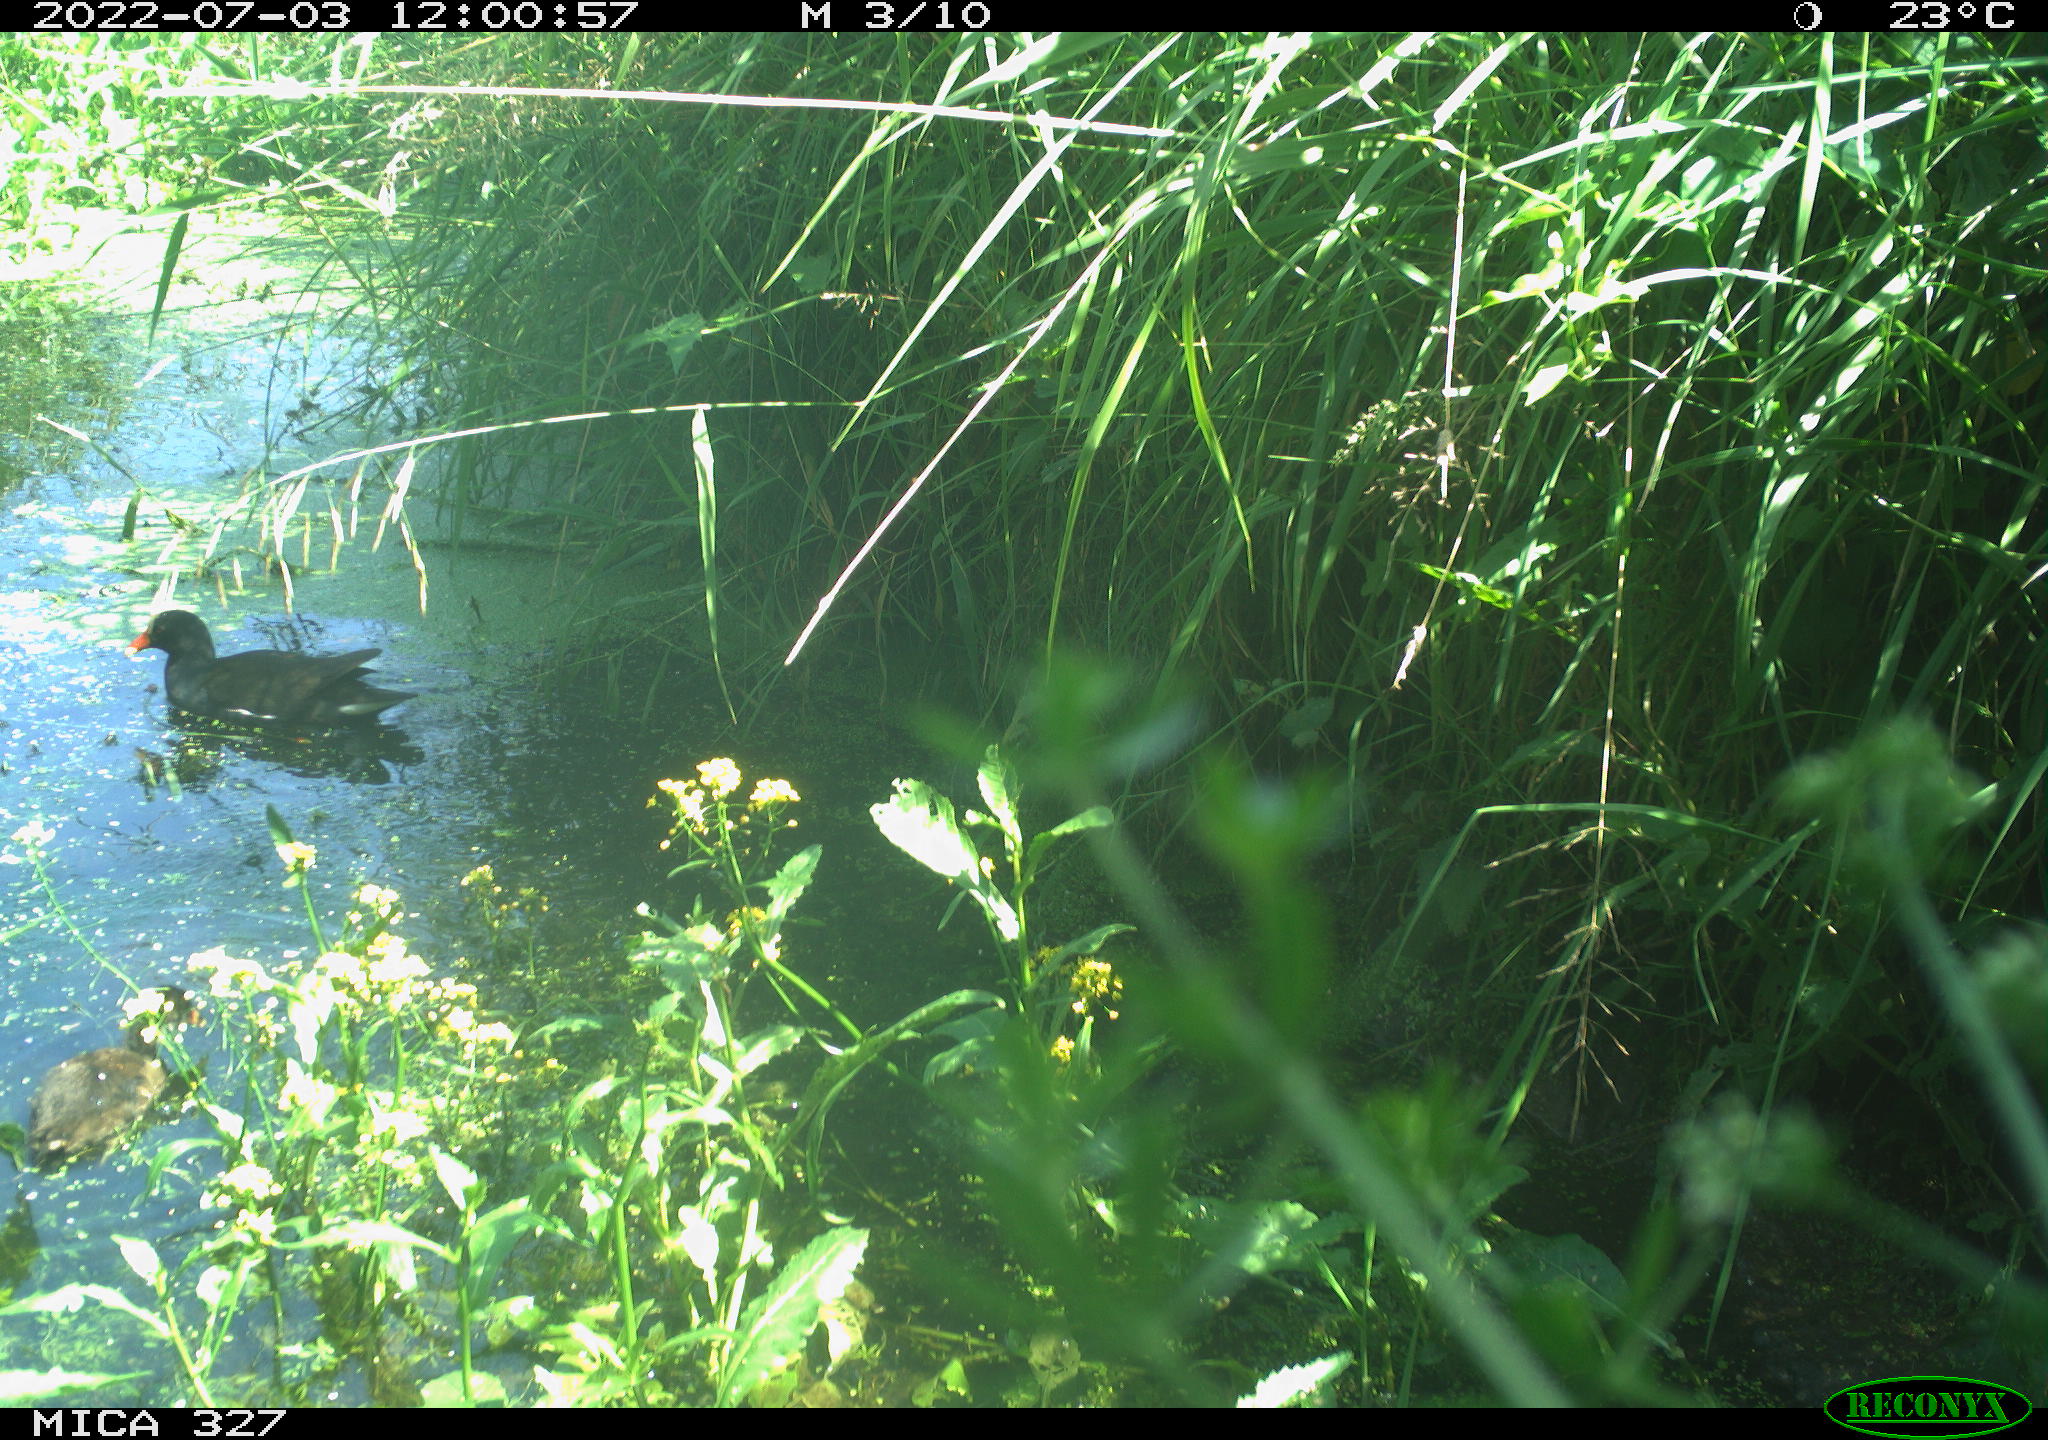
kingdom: Animalia
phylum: Chordata
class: Aves
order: Gruiformes
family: Rallidae
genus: Gallinula
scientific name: Gallinula chloropus
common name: Common moorhen
